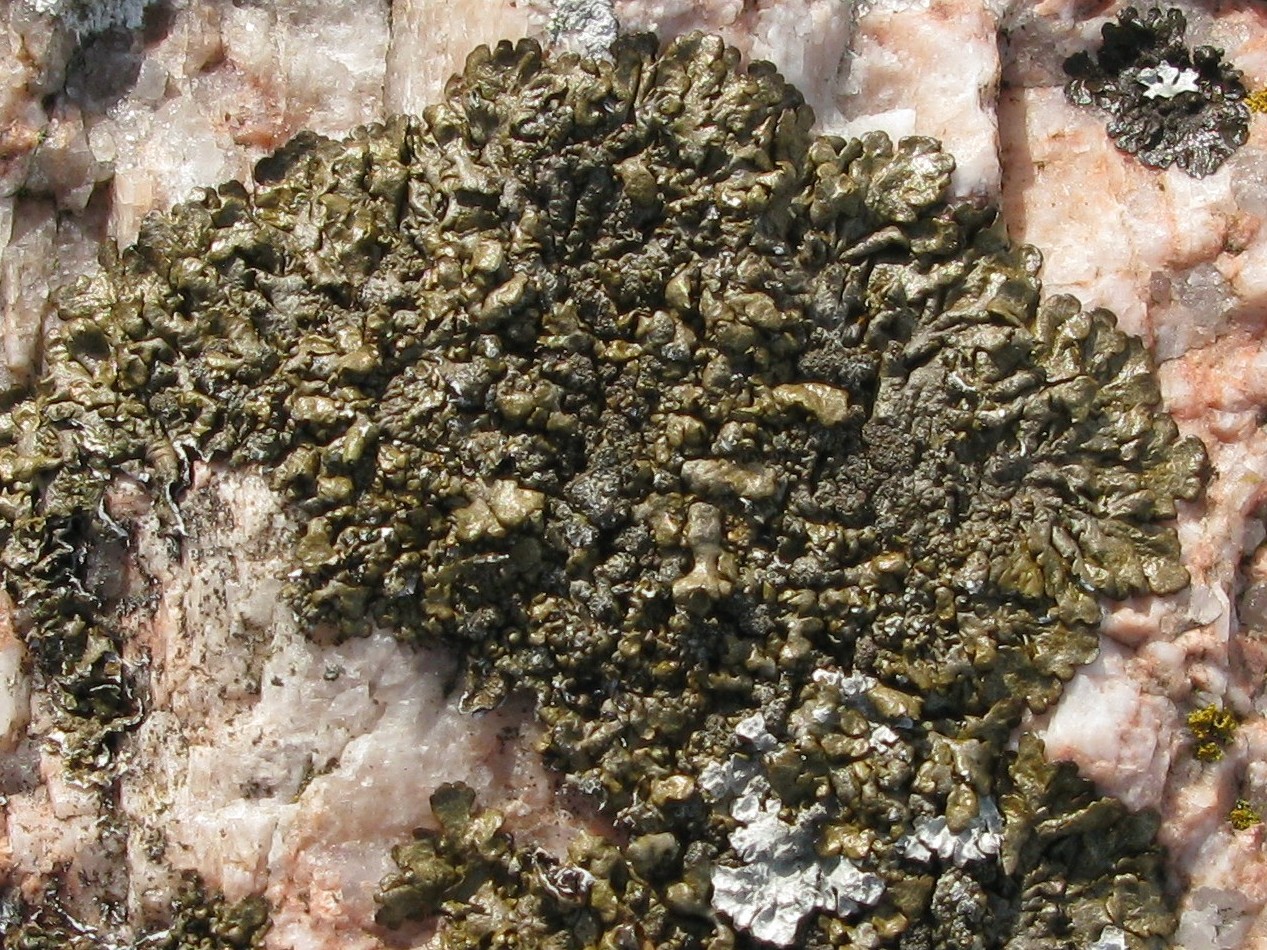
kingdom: Fungi
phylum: Ascomycota
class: Lecanoromycetes
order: Lecanorales
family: Parmeliaceae
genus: Xanthoparmelia
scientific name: Xanthoparmelia verruculifera
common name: småknoppet skållav
